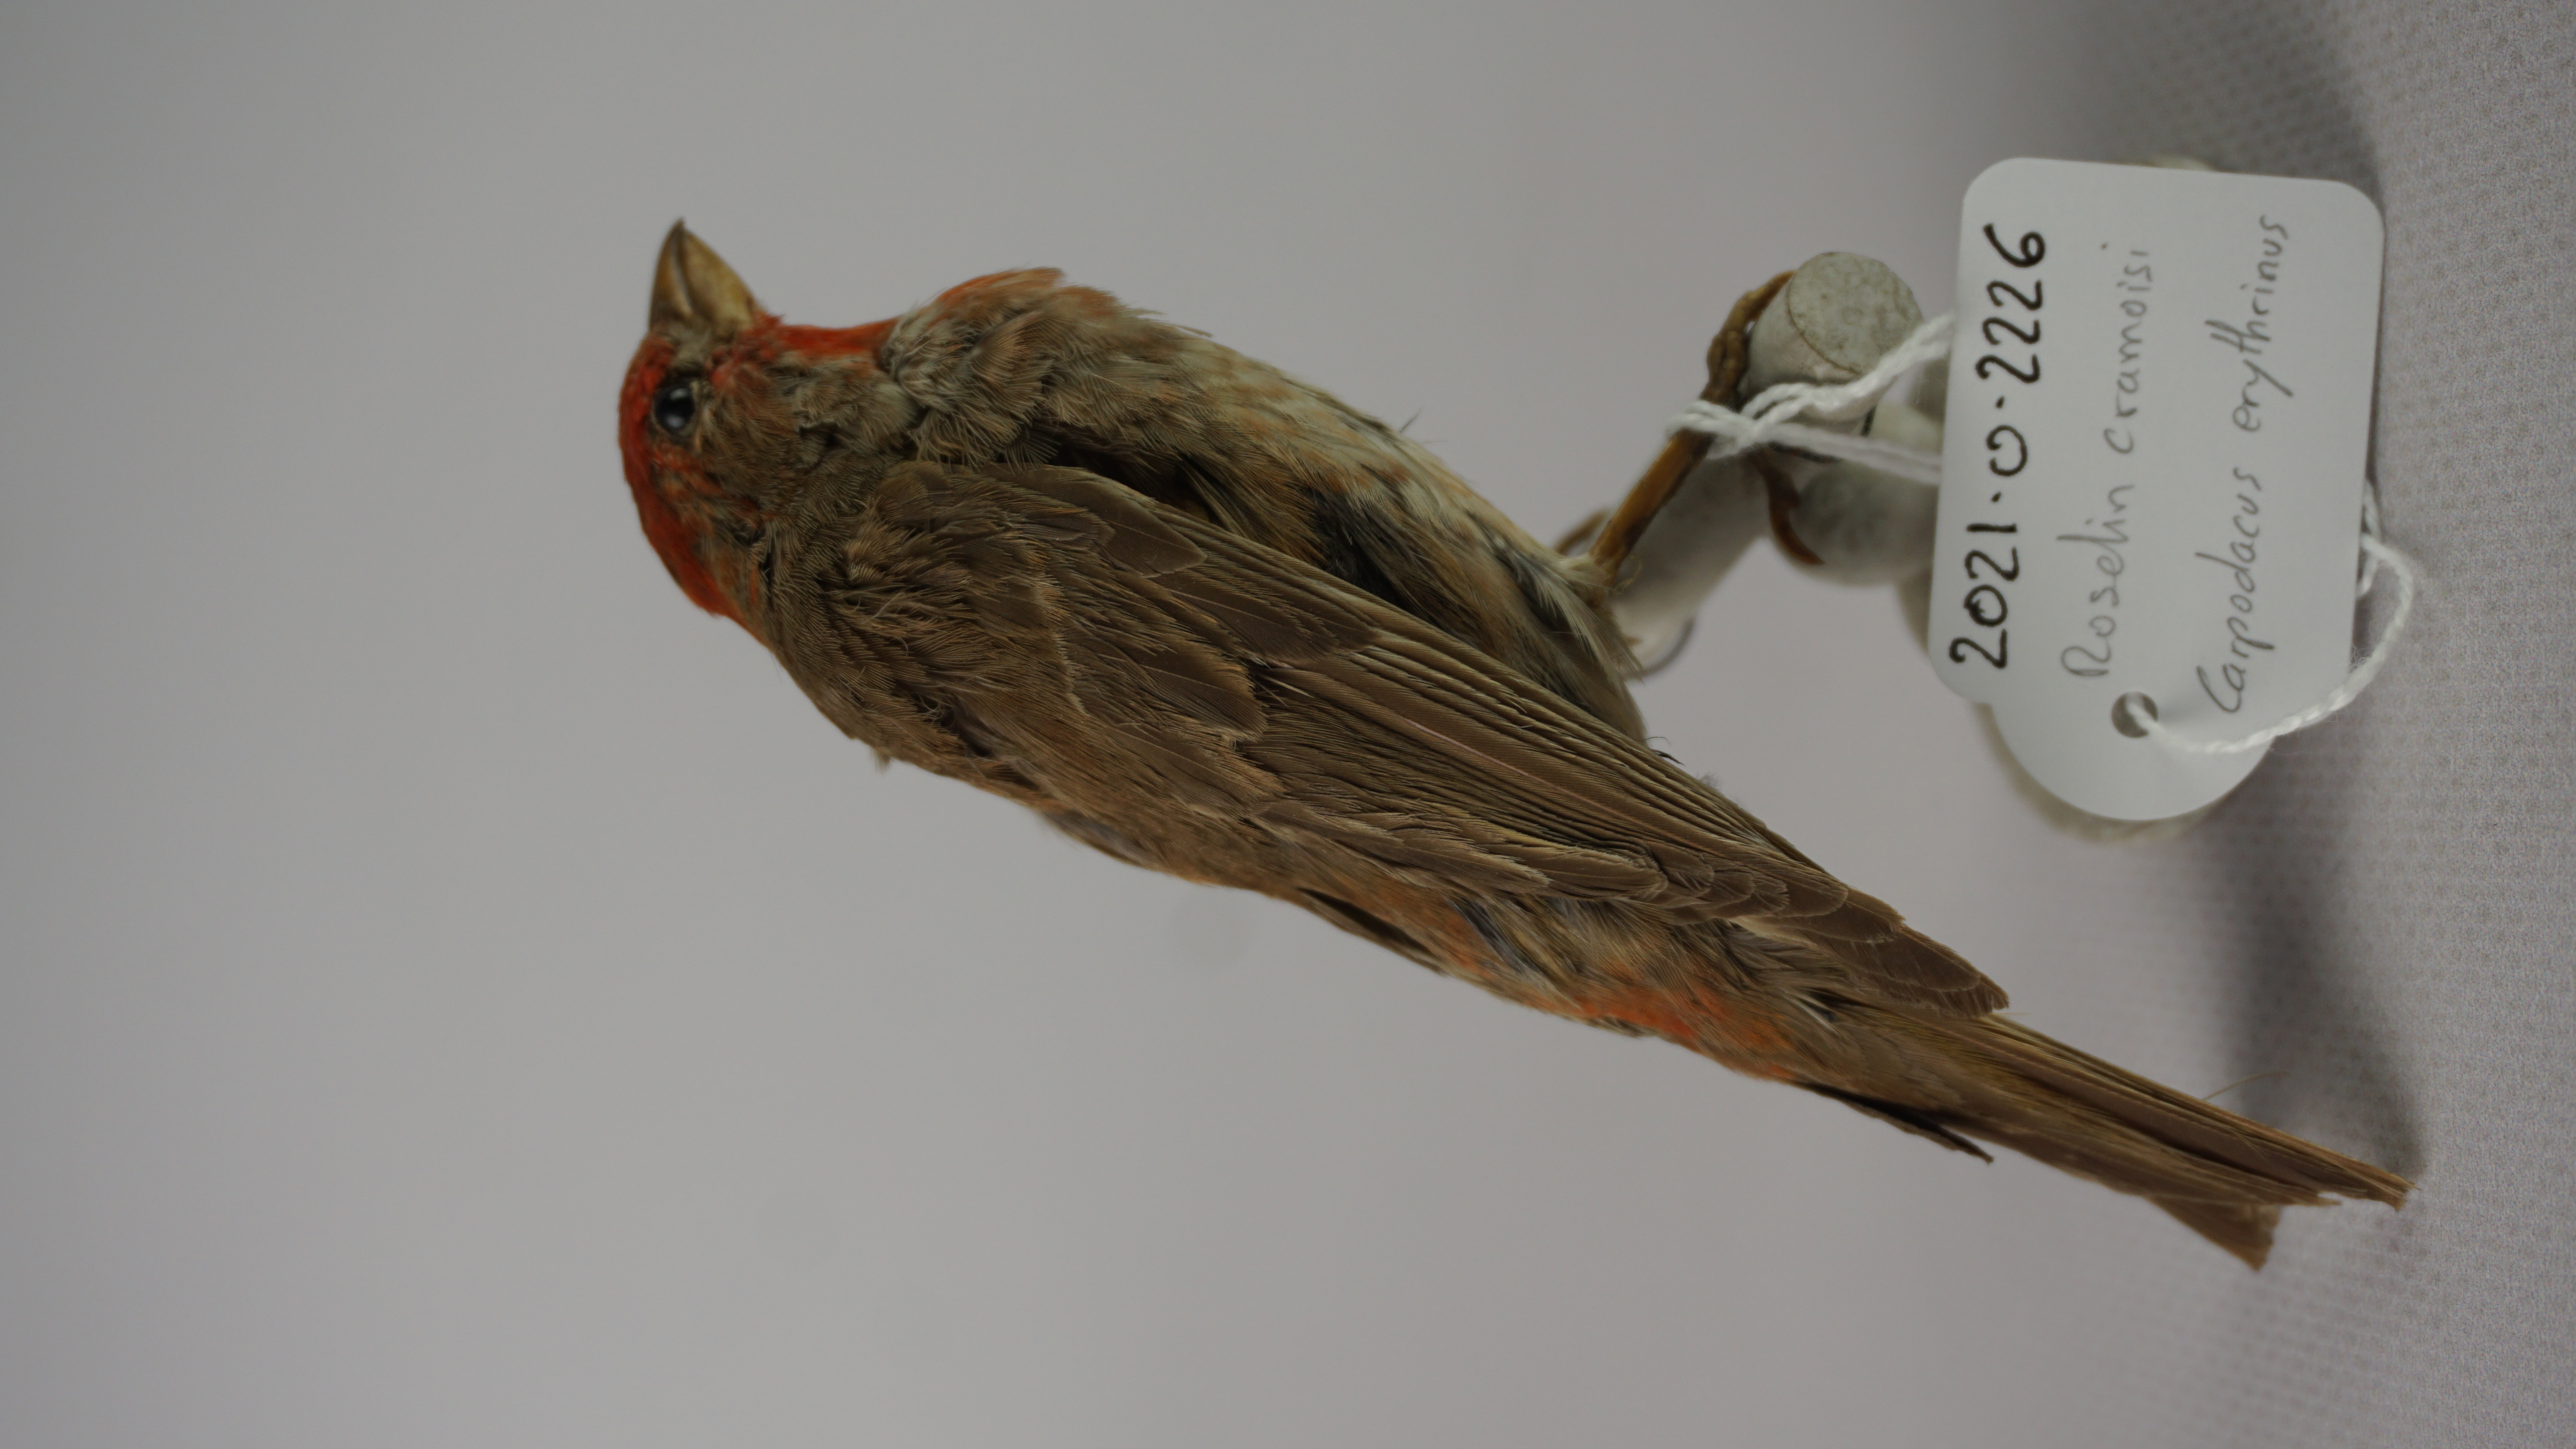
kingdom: Animalia
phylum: Chordata
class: Aves
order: Passeriformes
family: Fringillidae
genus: Carpodacus
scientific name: Carpodacus erythrinus
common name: Common rosefinch
